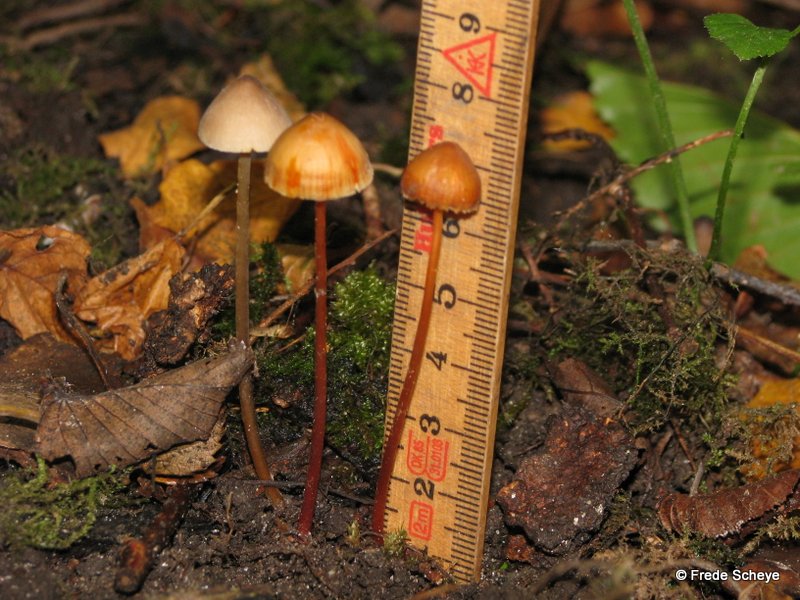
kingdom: Fungi
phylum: Basidiomycota
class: Agaricomycetes
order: Agaricales
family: Mycenaceae
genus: Mycena
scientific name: Mycena crocata
